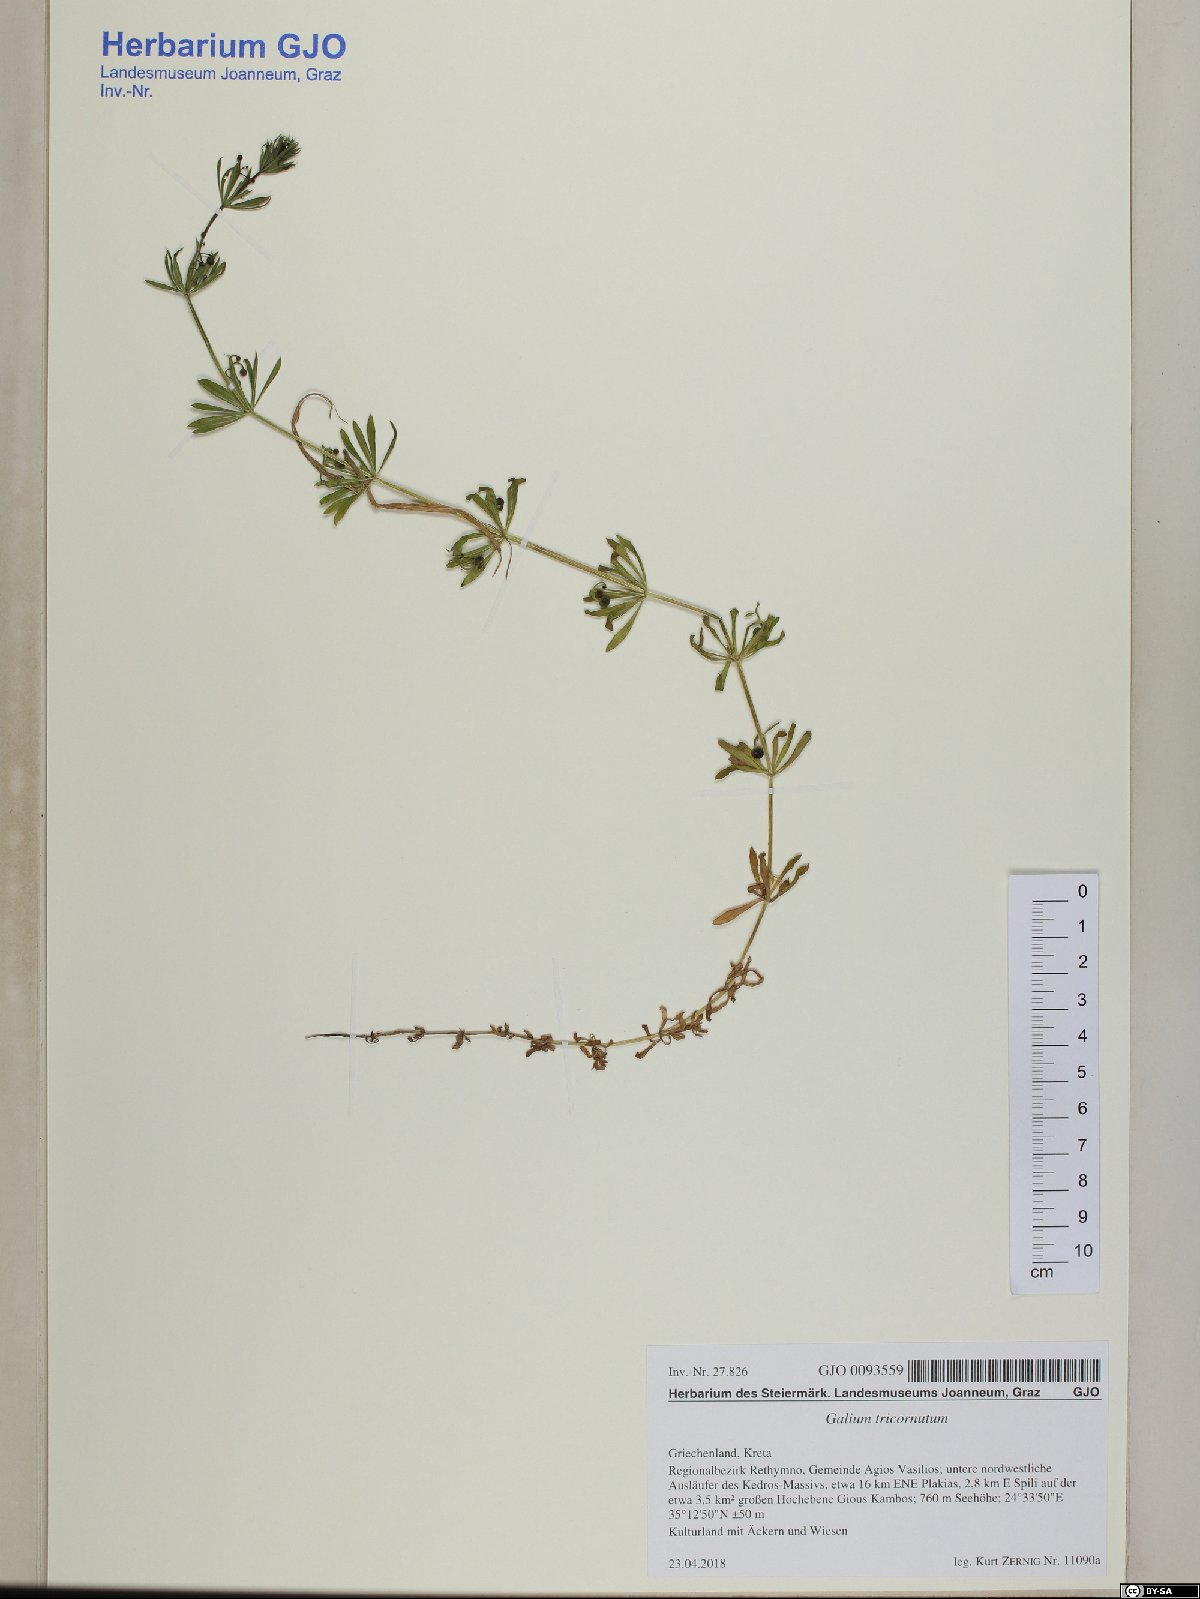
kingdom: Plantae
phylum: Tracheophyta
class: Magnoliopsida
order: Gentianales
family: Rubiaceae
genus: Galium
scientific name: Galium tricornutum
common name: Corn cleavers
